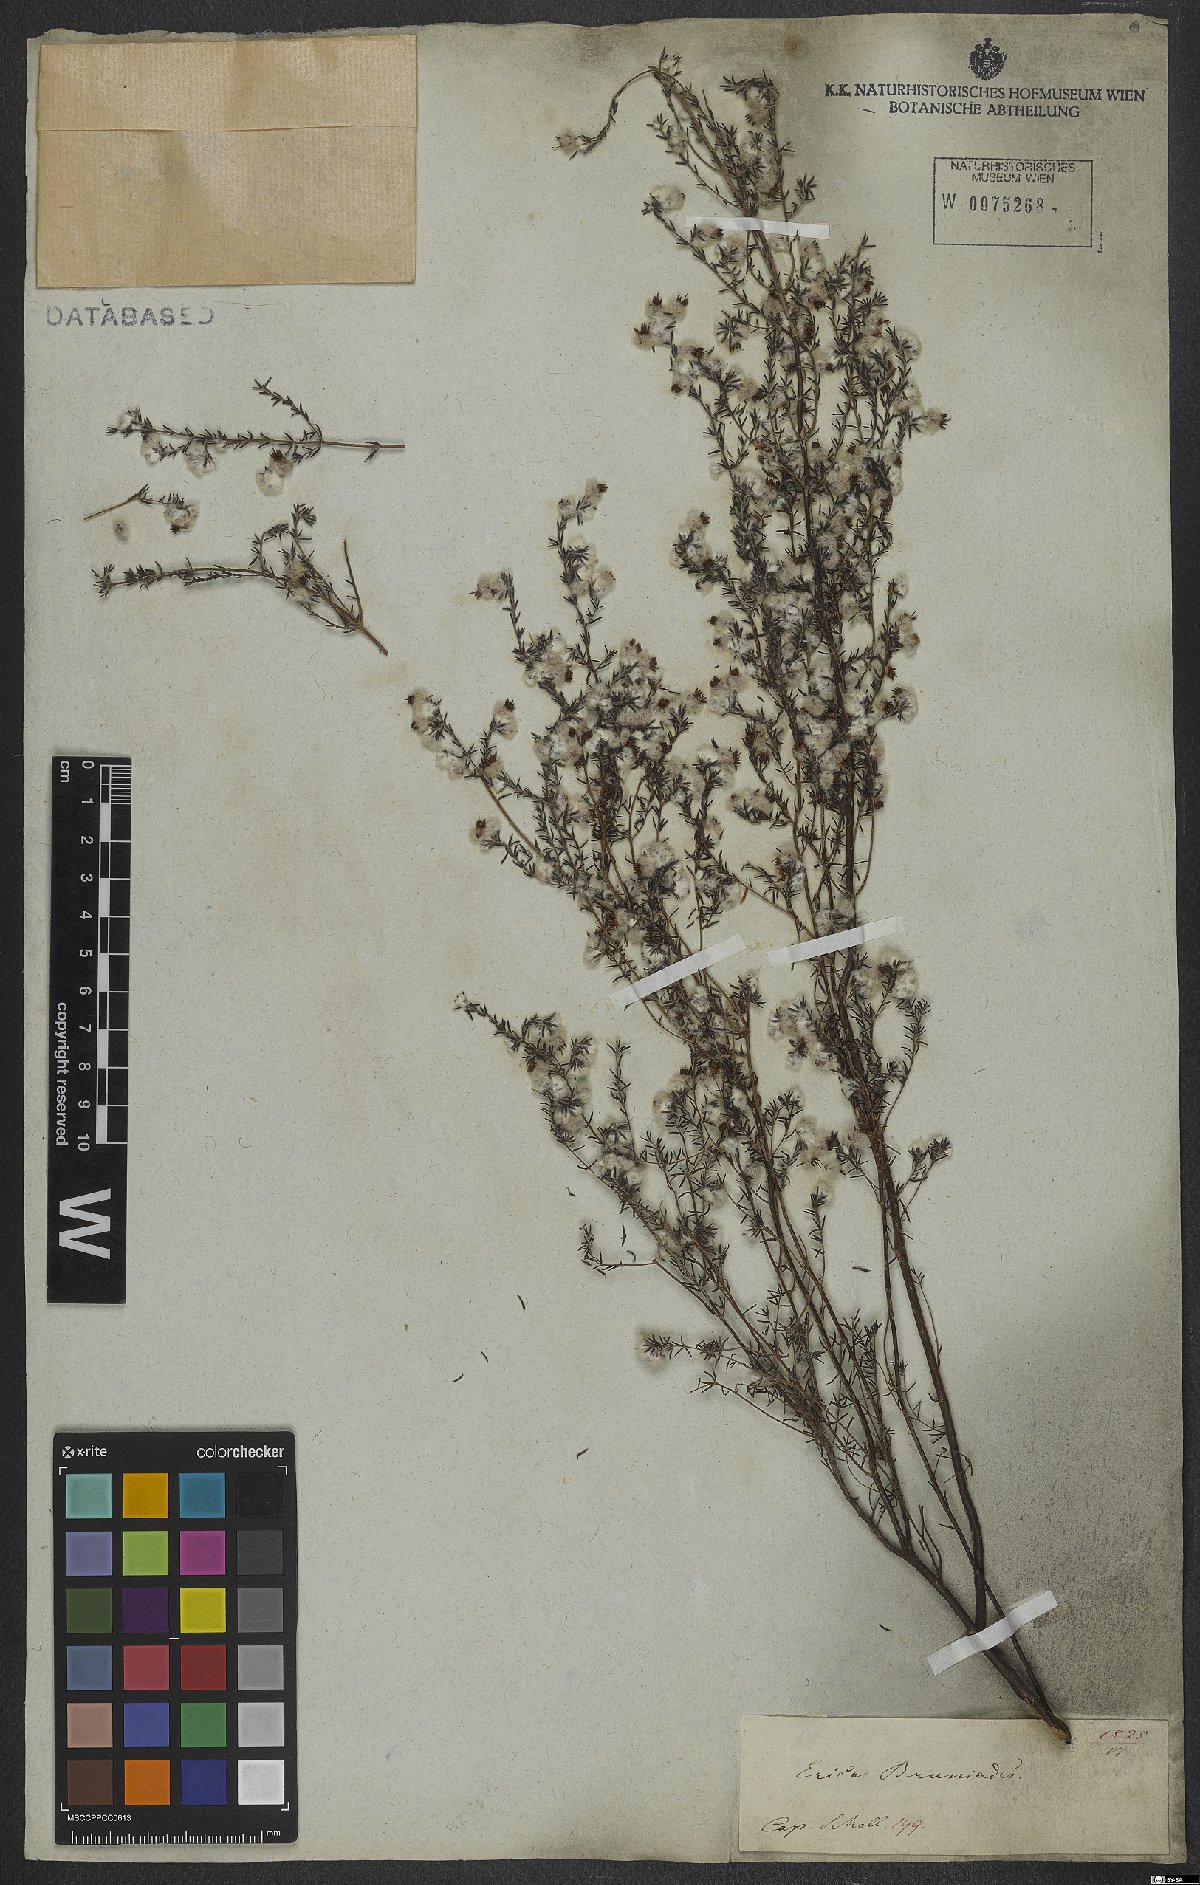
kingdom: Plantae
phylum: Tracheophyta
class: Magnoliopsida
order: Ericales
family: Ericaceae
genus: Erica
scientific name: Erica bruniades
